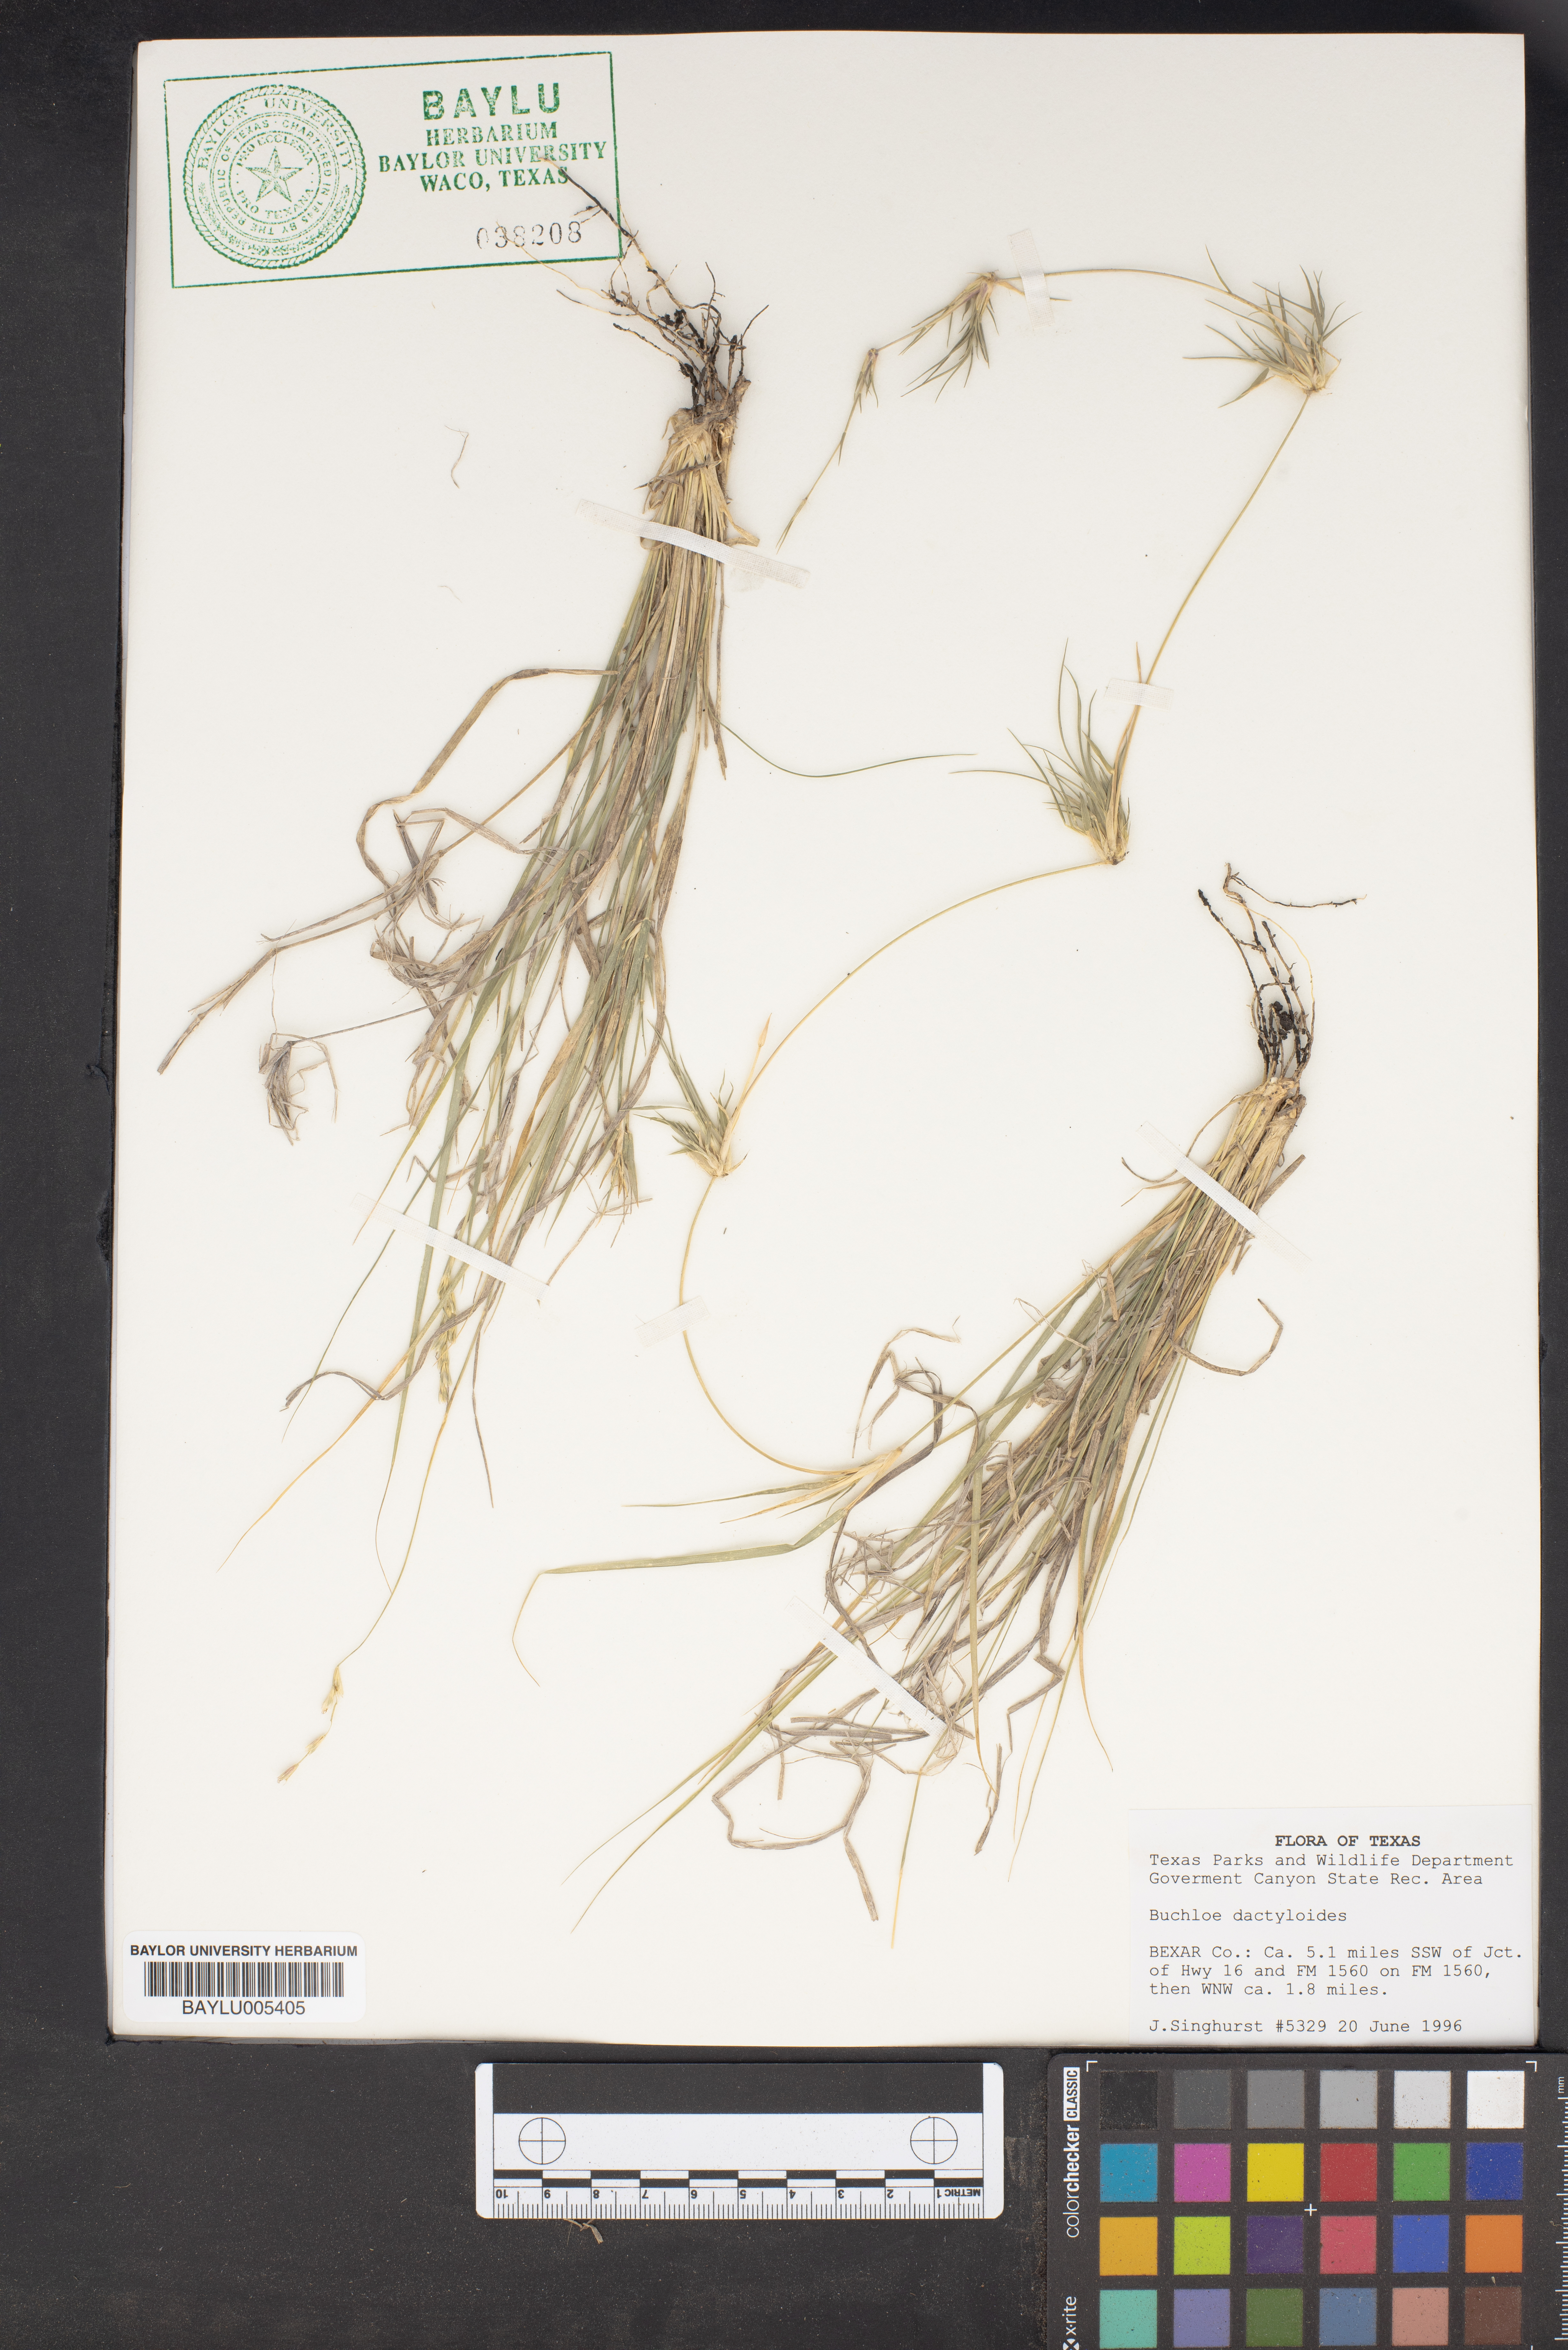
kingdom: Plantae
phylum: Tracheophyta
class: Liliopsida
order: Poales
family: Poaceae
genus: Bouteloua
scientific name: Bouteloua dactyloides
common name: Buffalo grass
